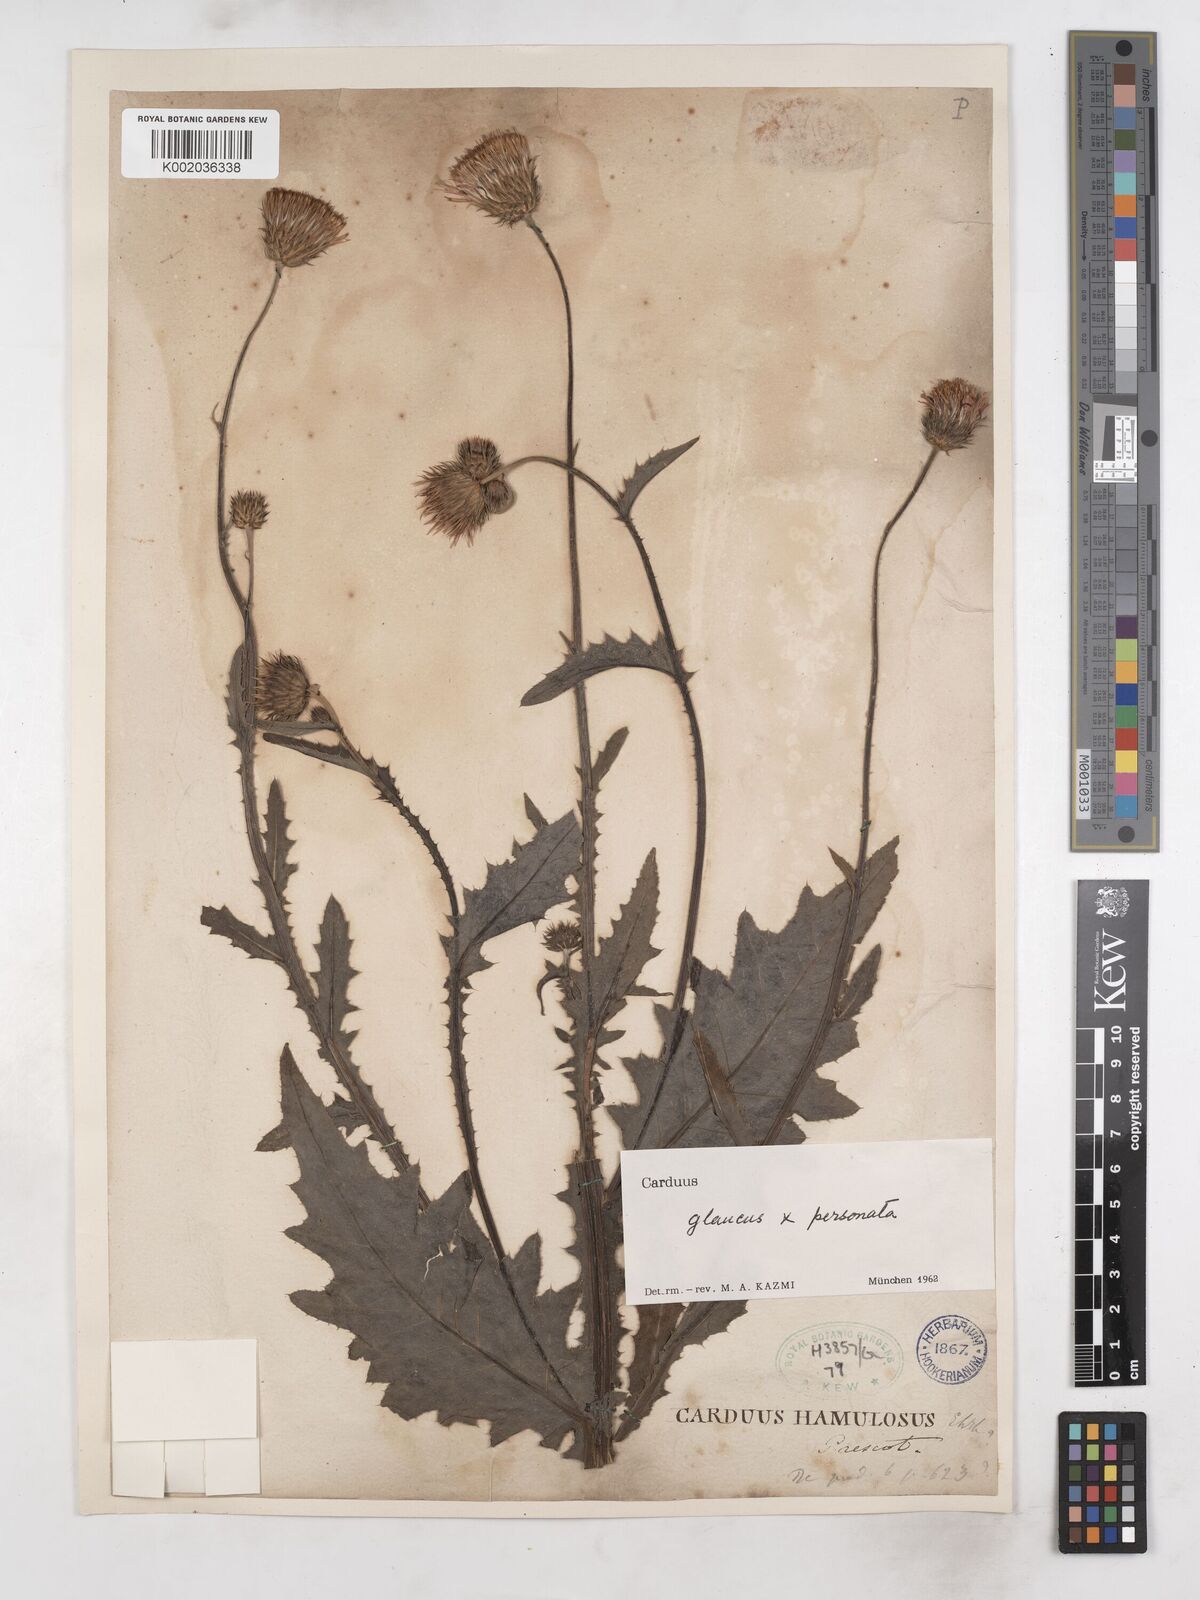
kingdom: Plantae
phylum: Tracheophyta
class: Magnoliopsida
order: Asterales
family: Asteraceae
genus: Carduus
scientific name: Carduus defloratus
